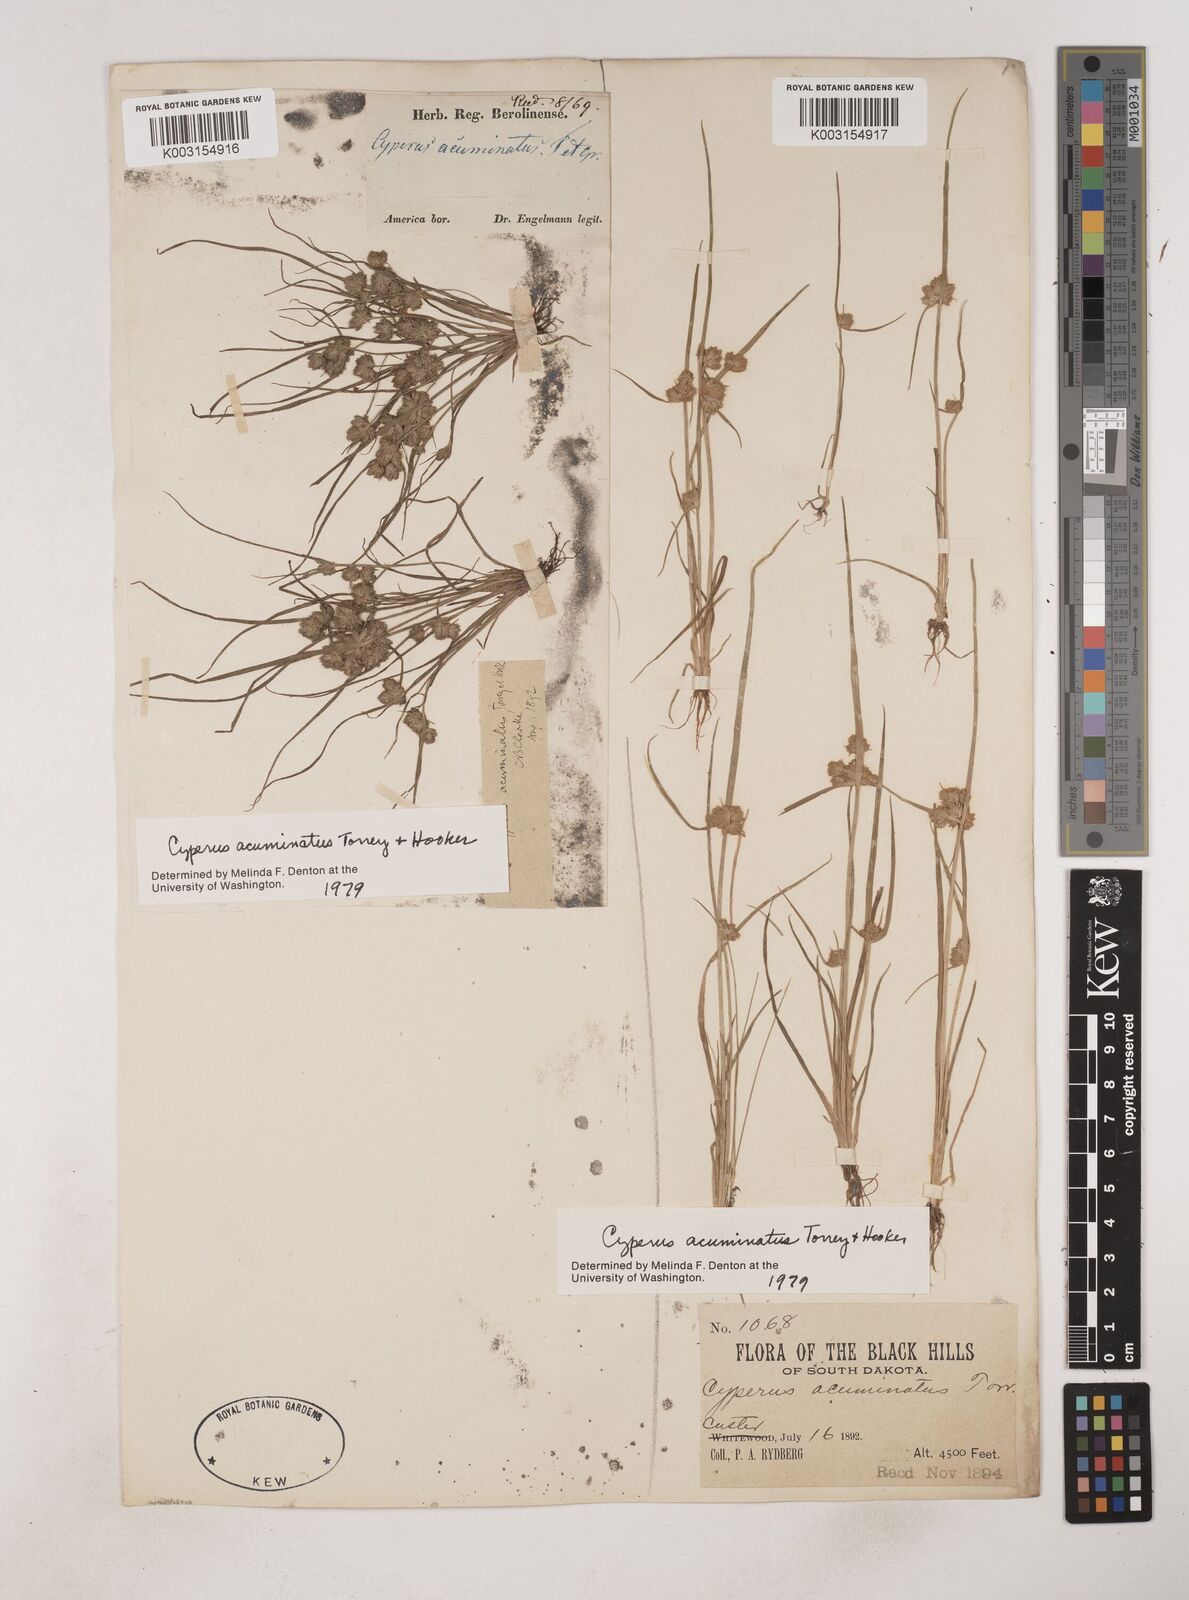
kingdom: Plantae
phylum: Tracheophyta
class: Liliopsida
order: Poales
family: Cyperaceae
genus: Cyperus
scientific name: Cyperus acuminatus
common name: Short-pointed cyperus
